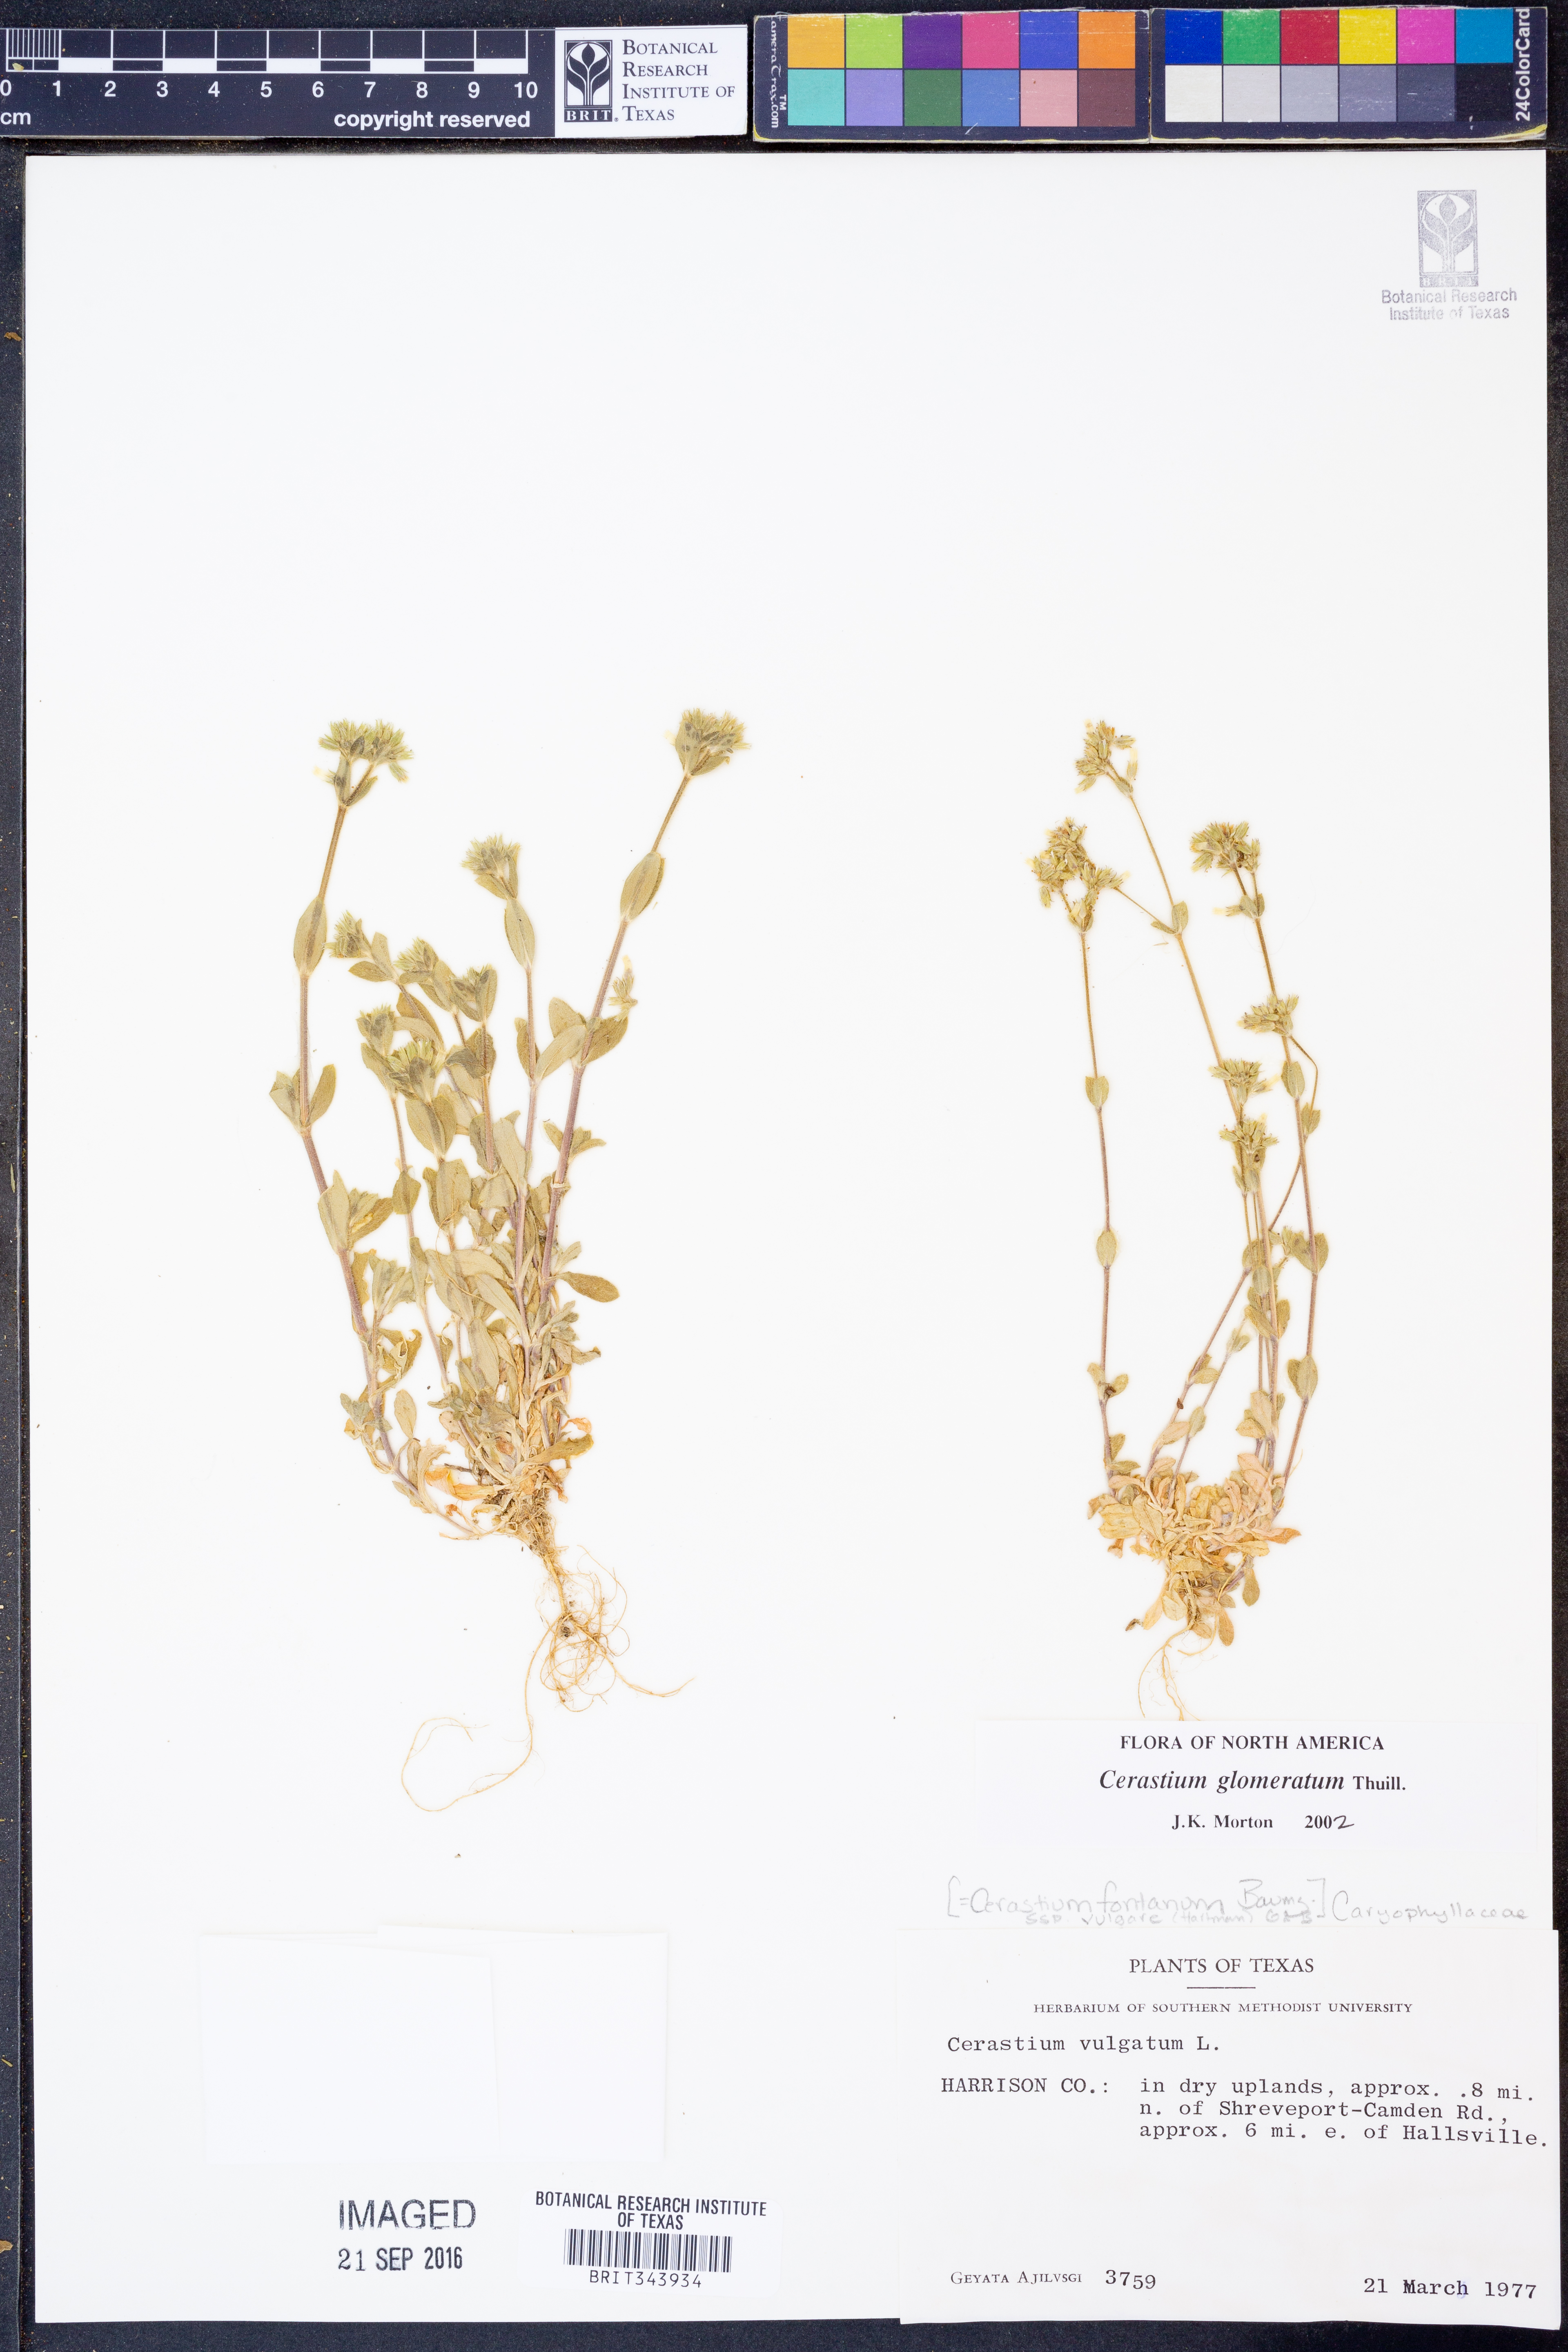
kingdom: Plantae
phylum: Tracheophyta
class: Magnoliopsida
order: Caryophyllales
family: Caryophyllaceae
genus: Cerastium
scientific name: Cerastium glomeratum
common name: Sticky chickweed
